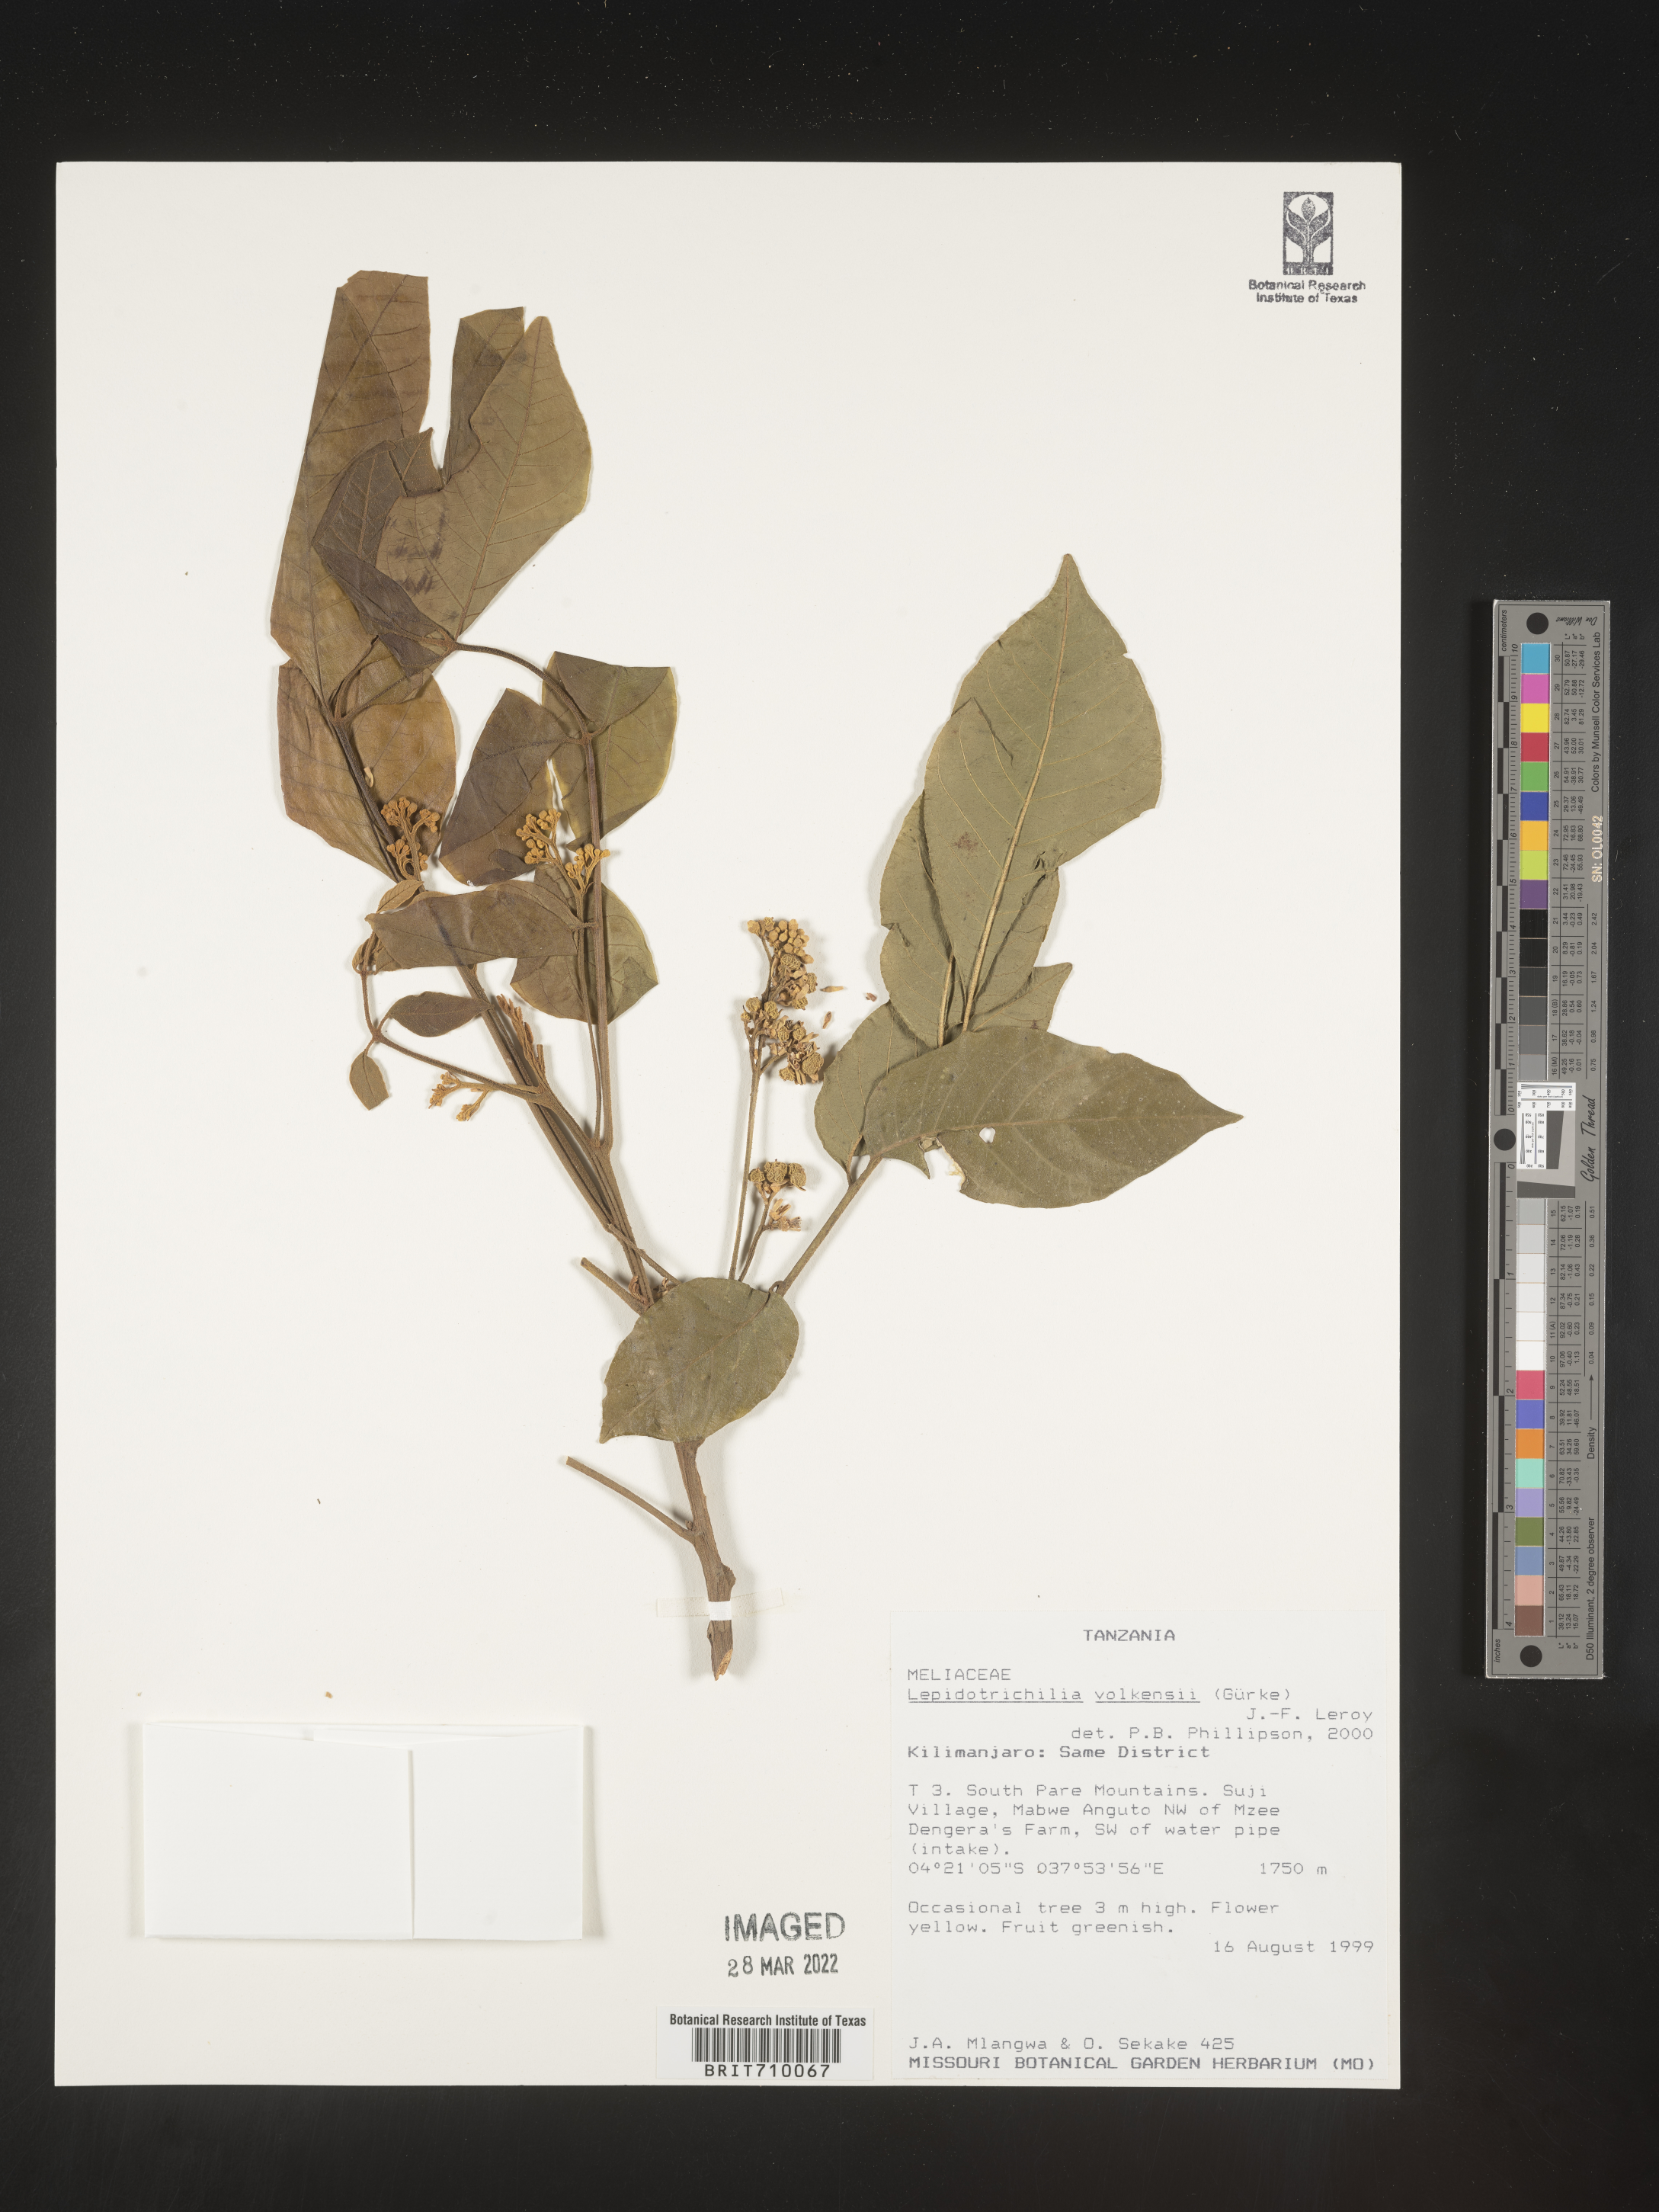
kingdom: Plantae
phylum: Tracheophyta
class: Magnoliopsida
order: Sapindales
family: Meliaceae
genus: Lepidotrichilia
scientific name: Lepidotrichilia
